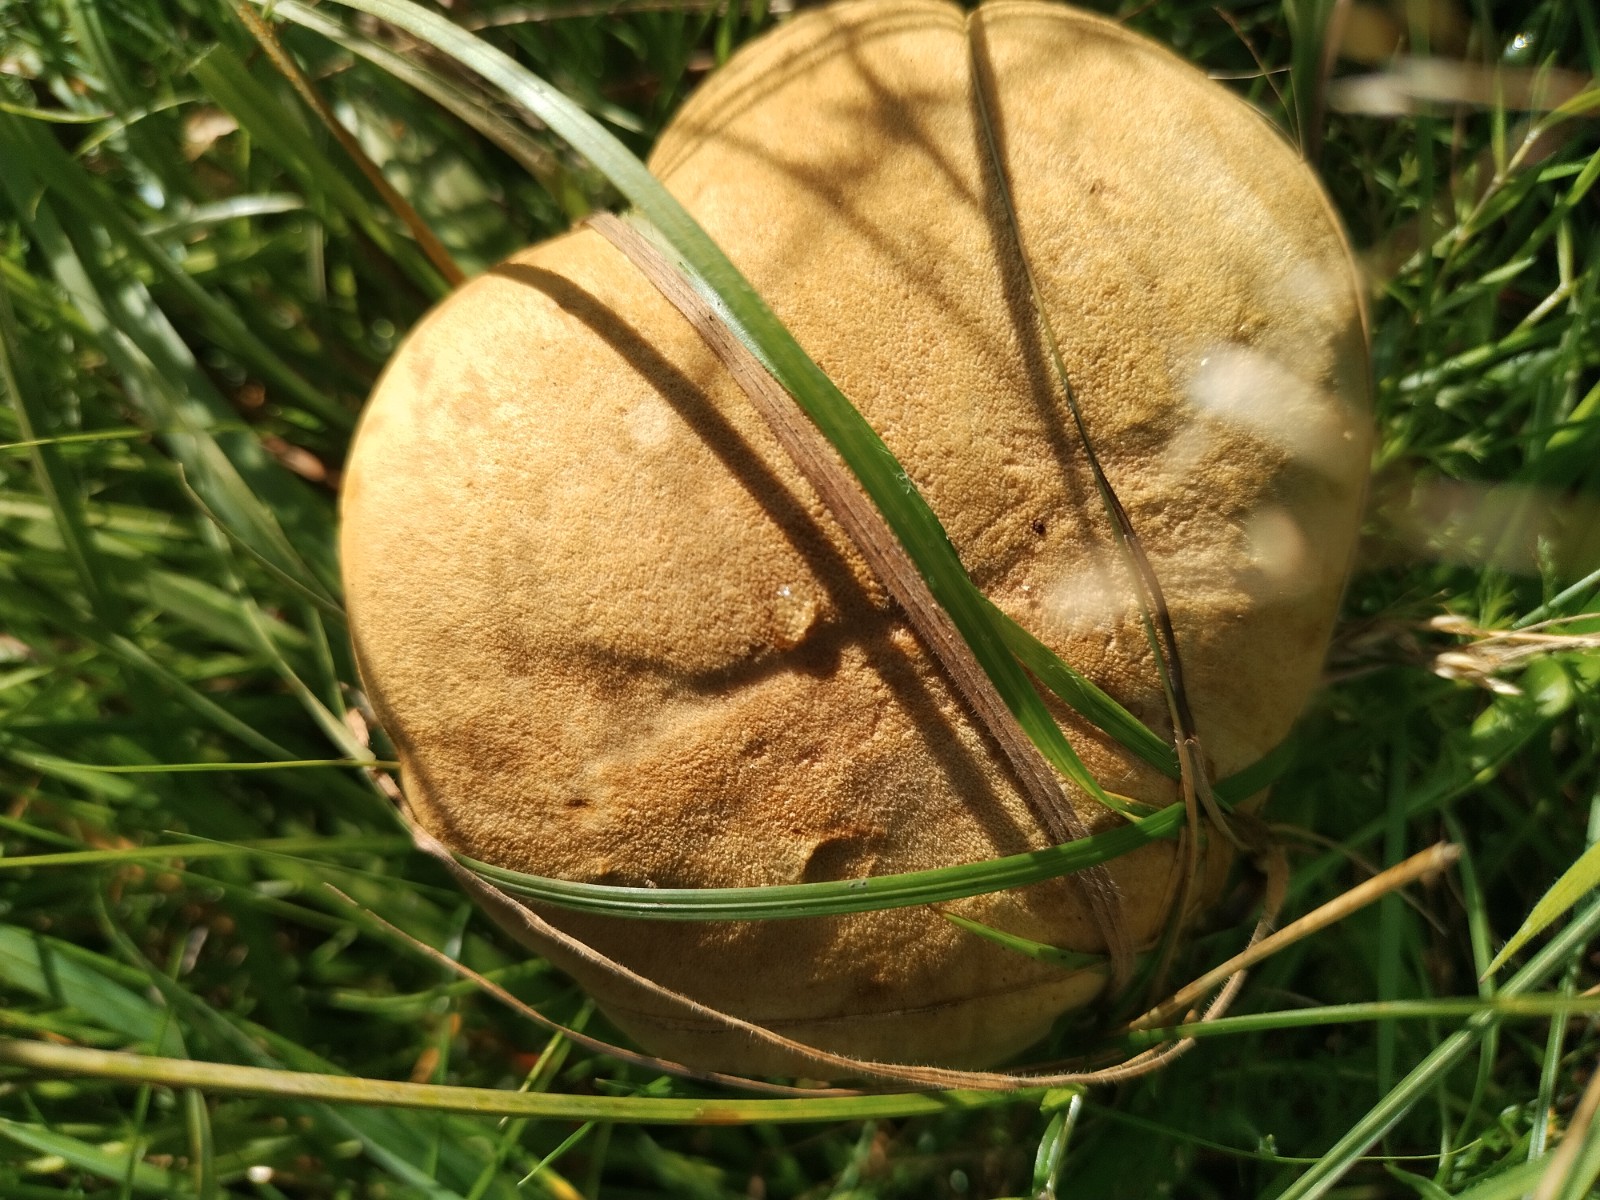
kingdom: Fungi
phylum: Basidiomycota
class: Agaricomycetes
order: Boletales
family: Boletaceae
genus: Xerocomus
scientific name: Xerocomus ferrugineus
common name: vaskeskinds-rørhat
